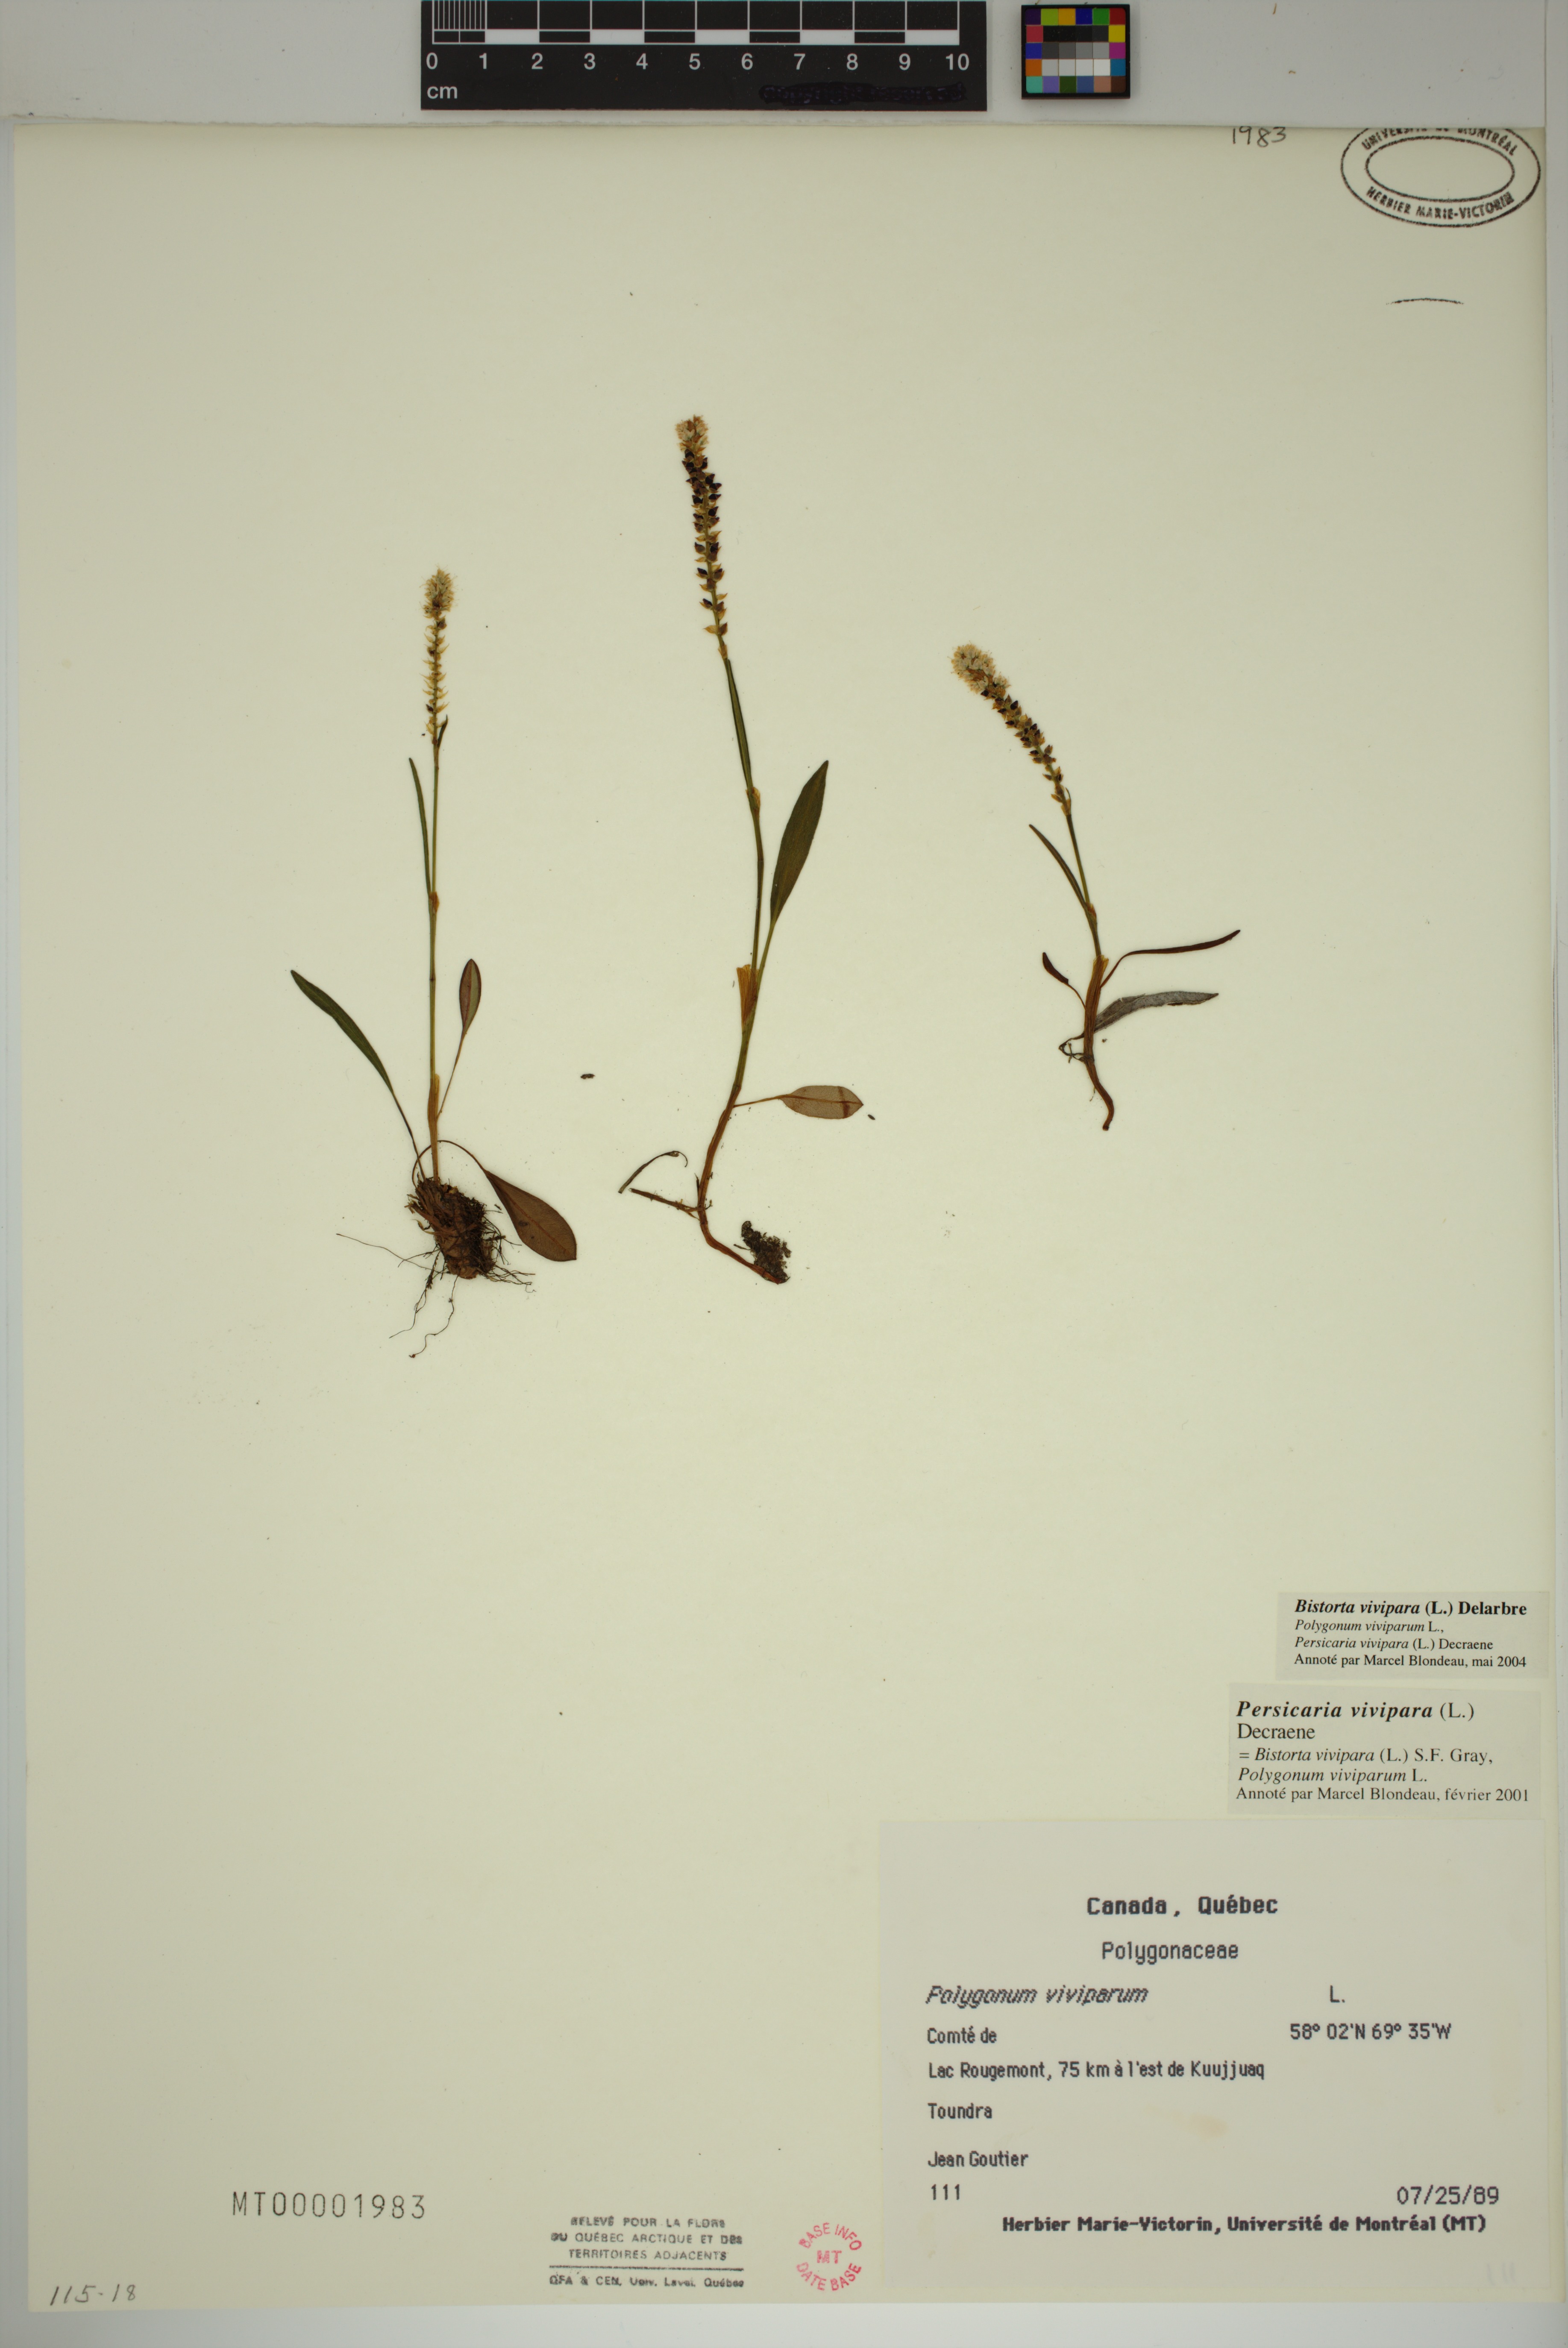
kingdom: Plantae
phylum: Tracheophyta
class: Magnoliopsida
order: Caryophyllales
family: Polygonaceae
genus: Bistorta
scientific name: Bistorta vivipara
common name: Alpine bistort
